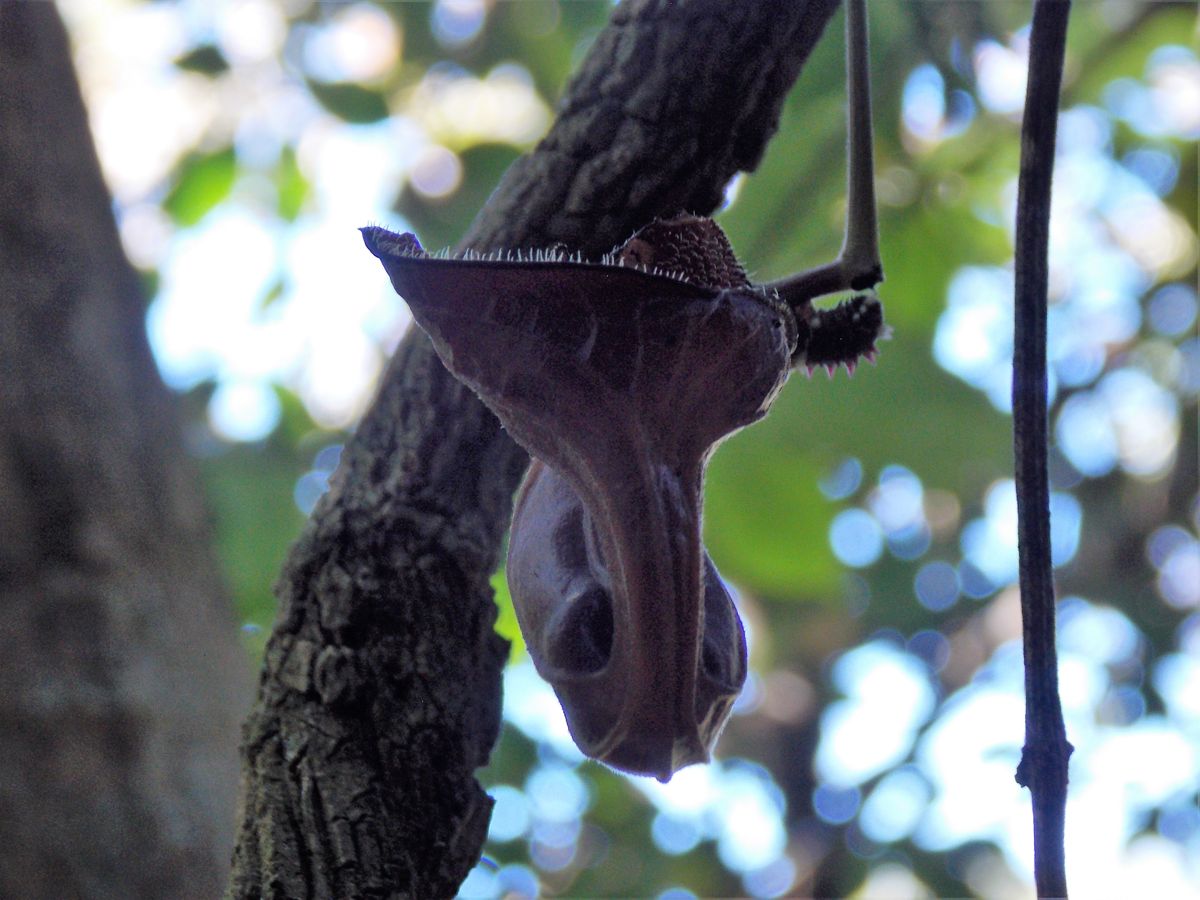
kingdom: Plantae
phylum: Tracheophyta
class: Magnoliopsida
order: Piperales
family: Aristolochiaceae
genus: Aristolochia
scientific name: Aristolochia maxima
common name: Florida dutchman's pipe
